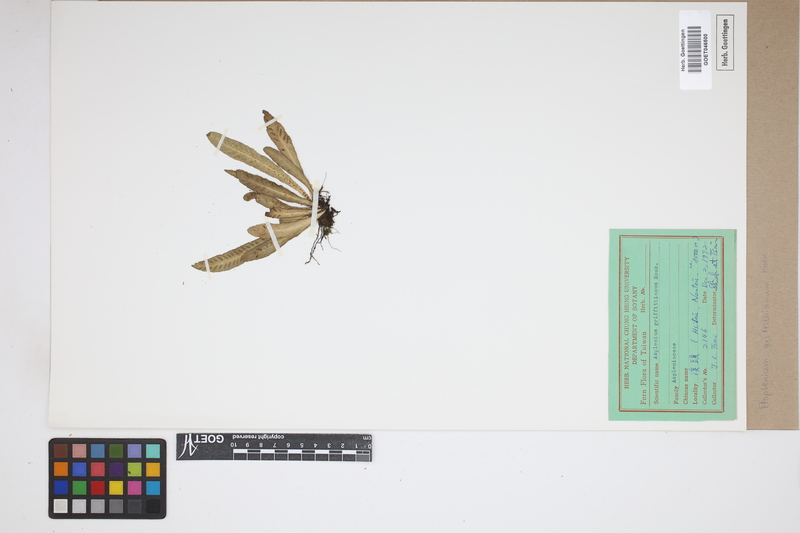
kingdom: Plantae
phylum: Tracheophyta
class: Polypodiopsida
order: Polypodiales
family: Aspleniaceae
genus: Asplenium
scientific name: Asplenium griffithianum
